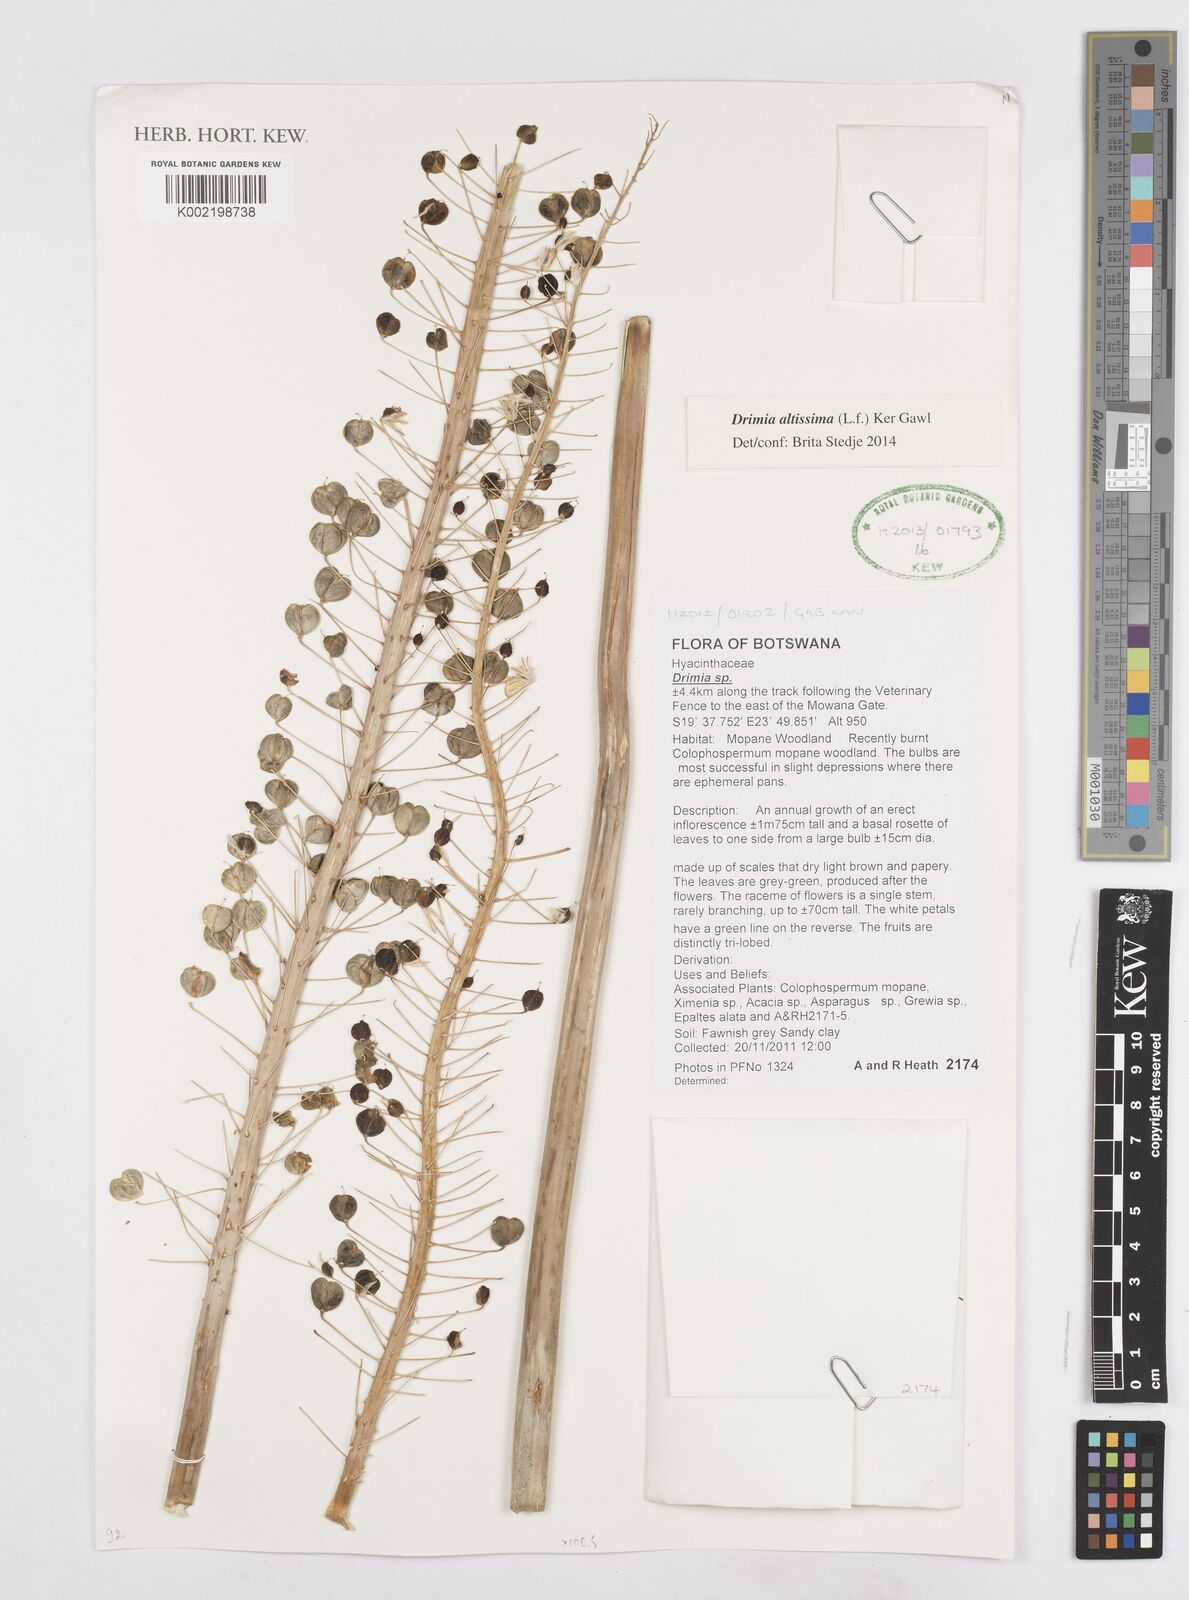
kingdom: Plantae
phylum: Tracheophyta
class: Liliopsida
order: Asparagales
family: Asparagaceae
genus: Drimia
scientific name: Drimia altissima
